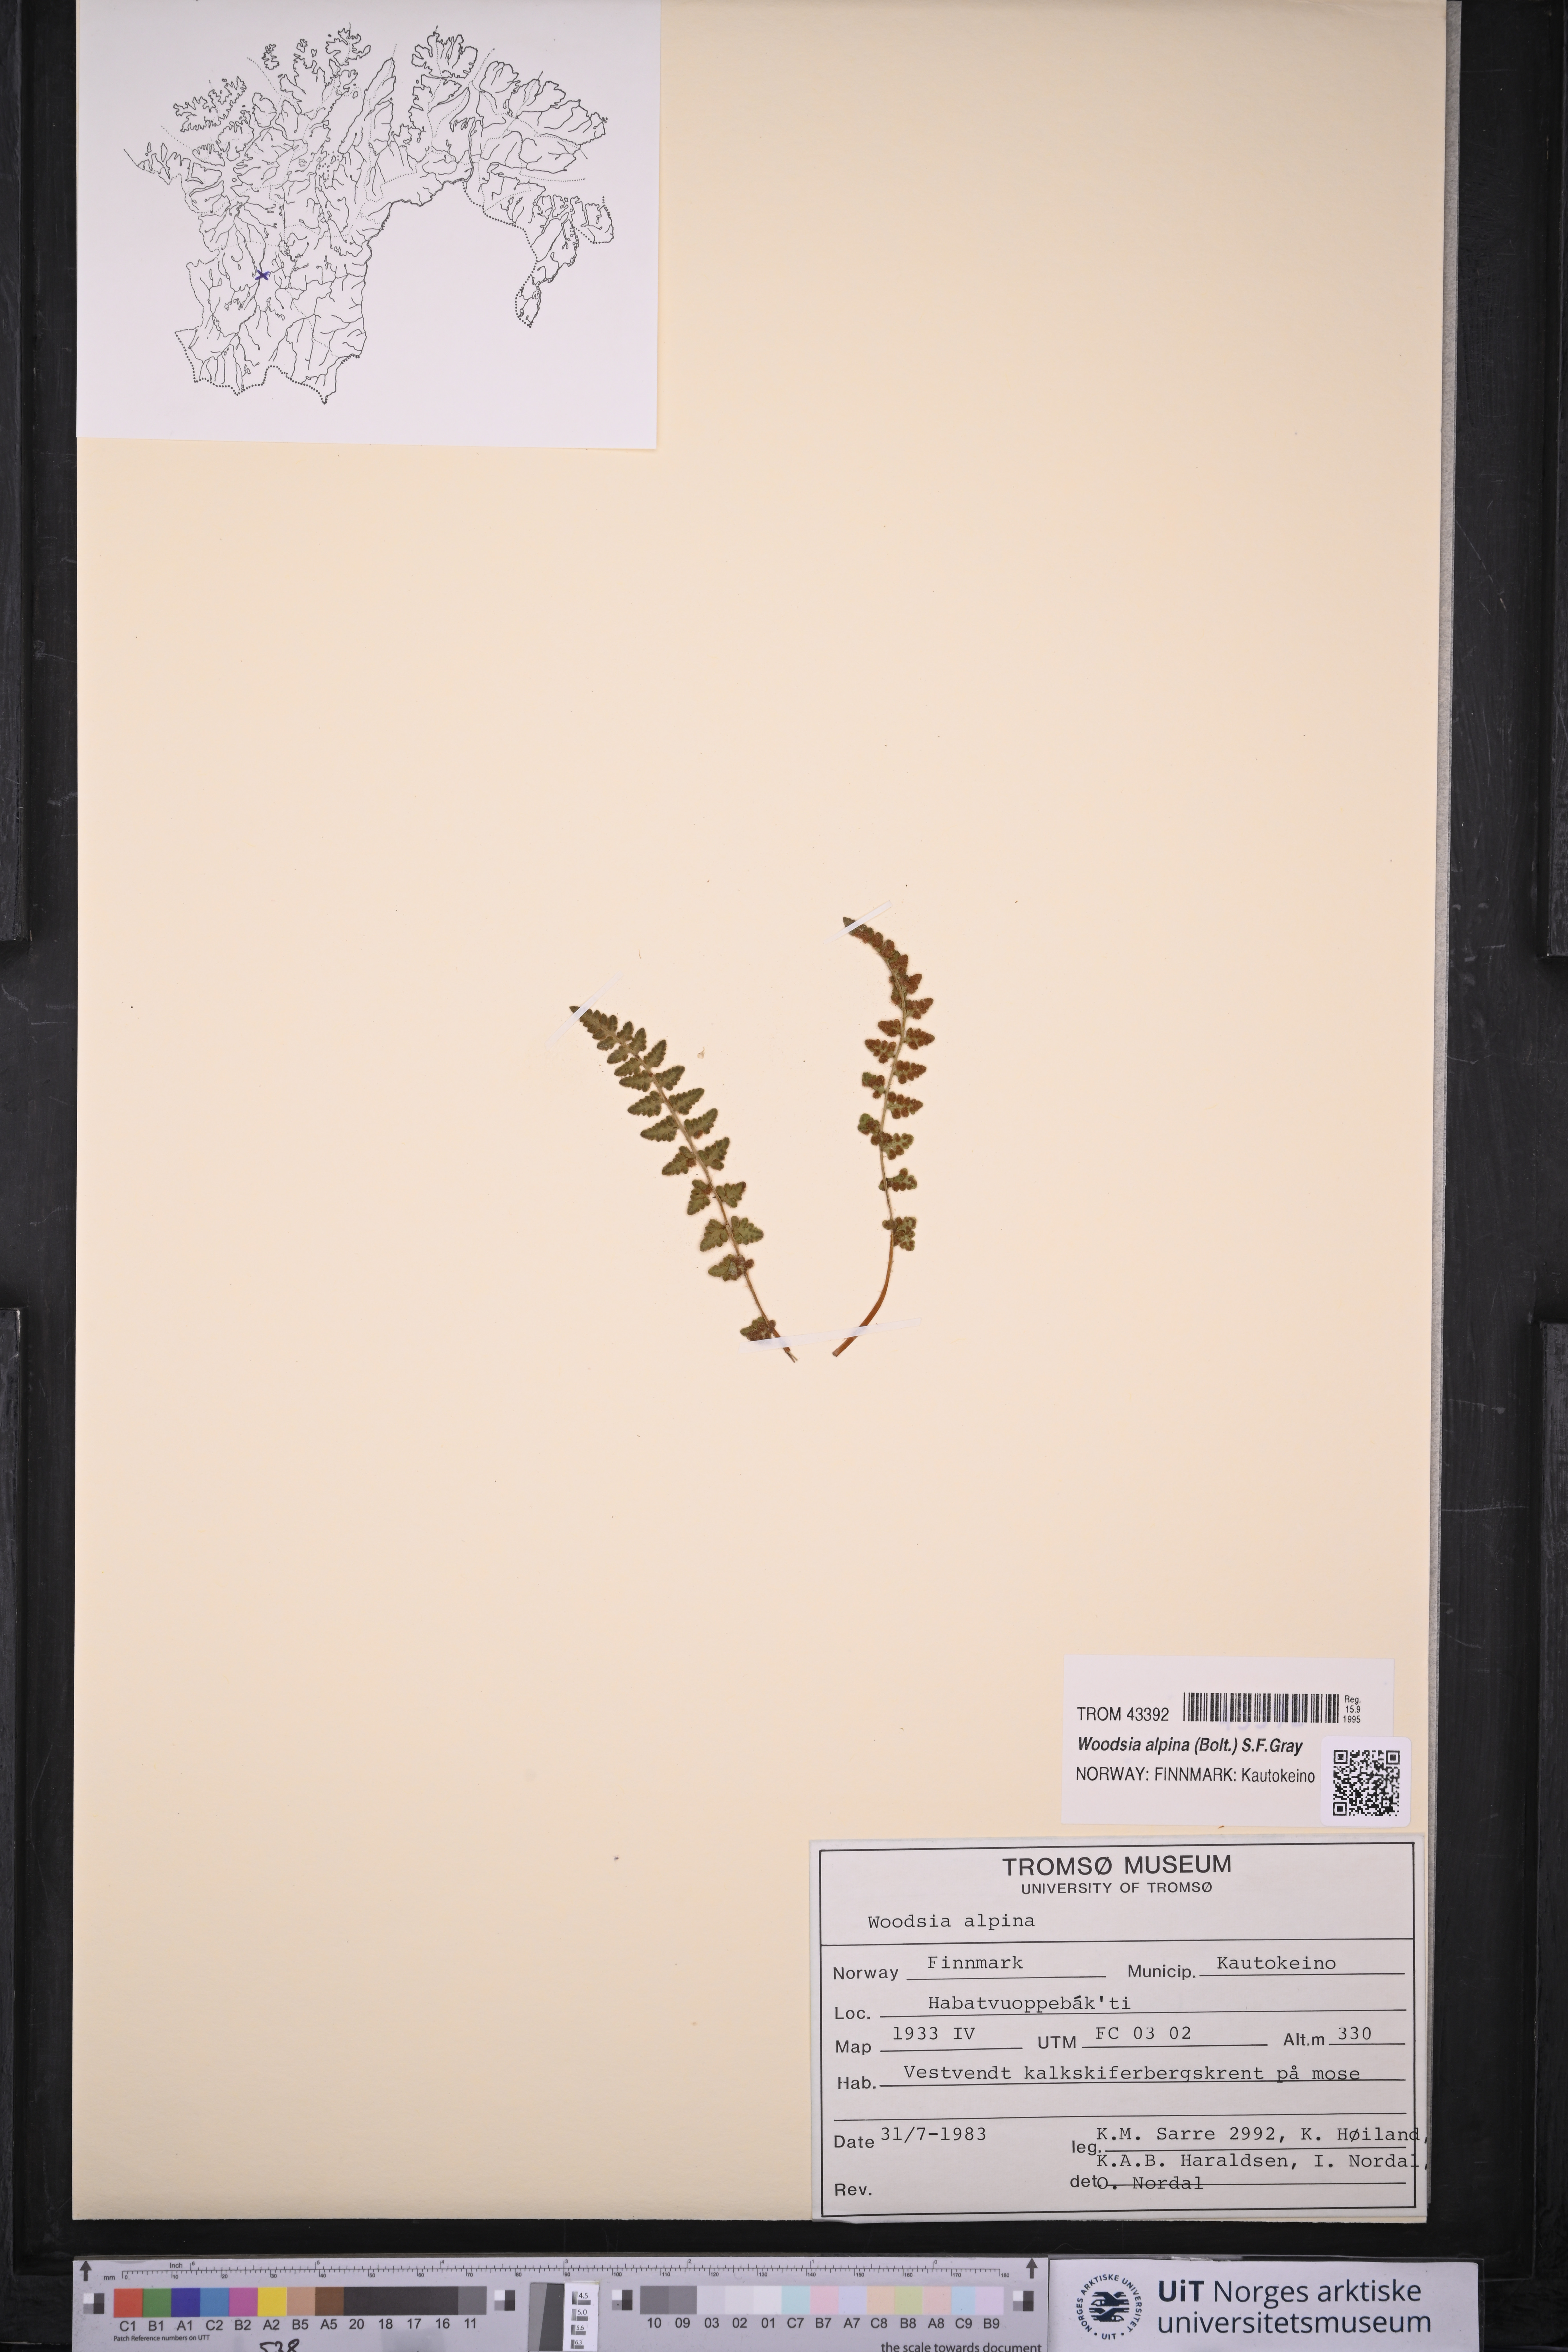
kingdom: Plantae
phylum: Tracheophyta
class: Polypodiopsida
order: Polypodiales
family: Woodsiaceae
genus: Woodsia
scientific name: Woodsia alpina
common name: Alpine woodsia
